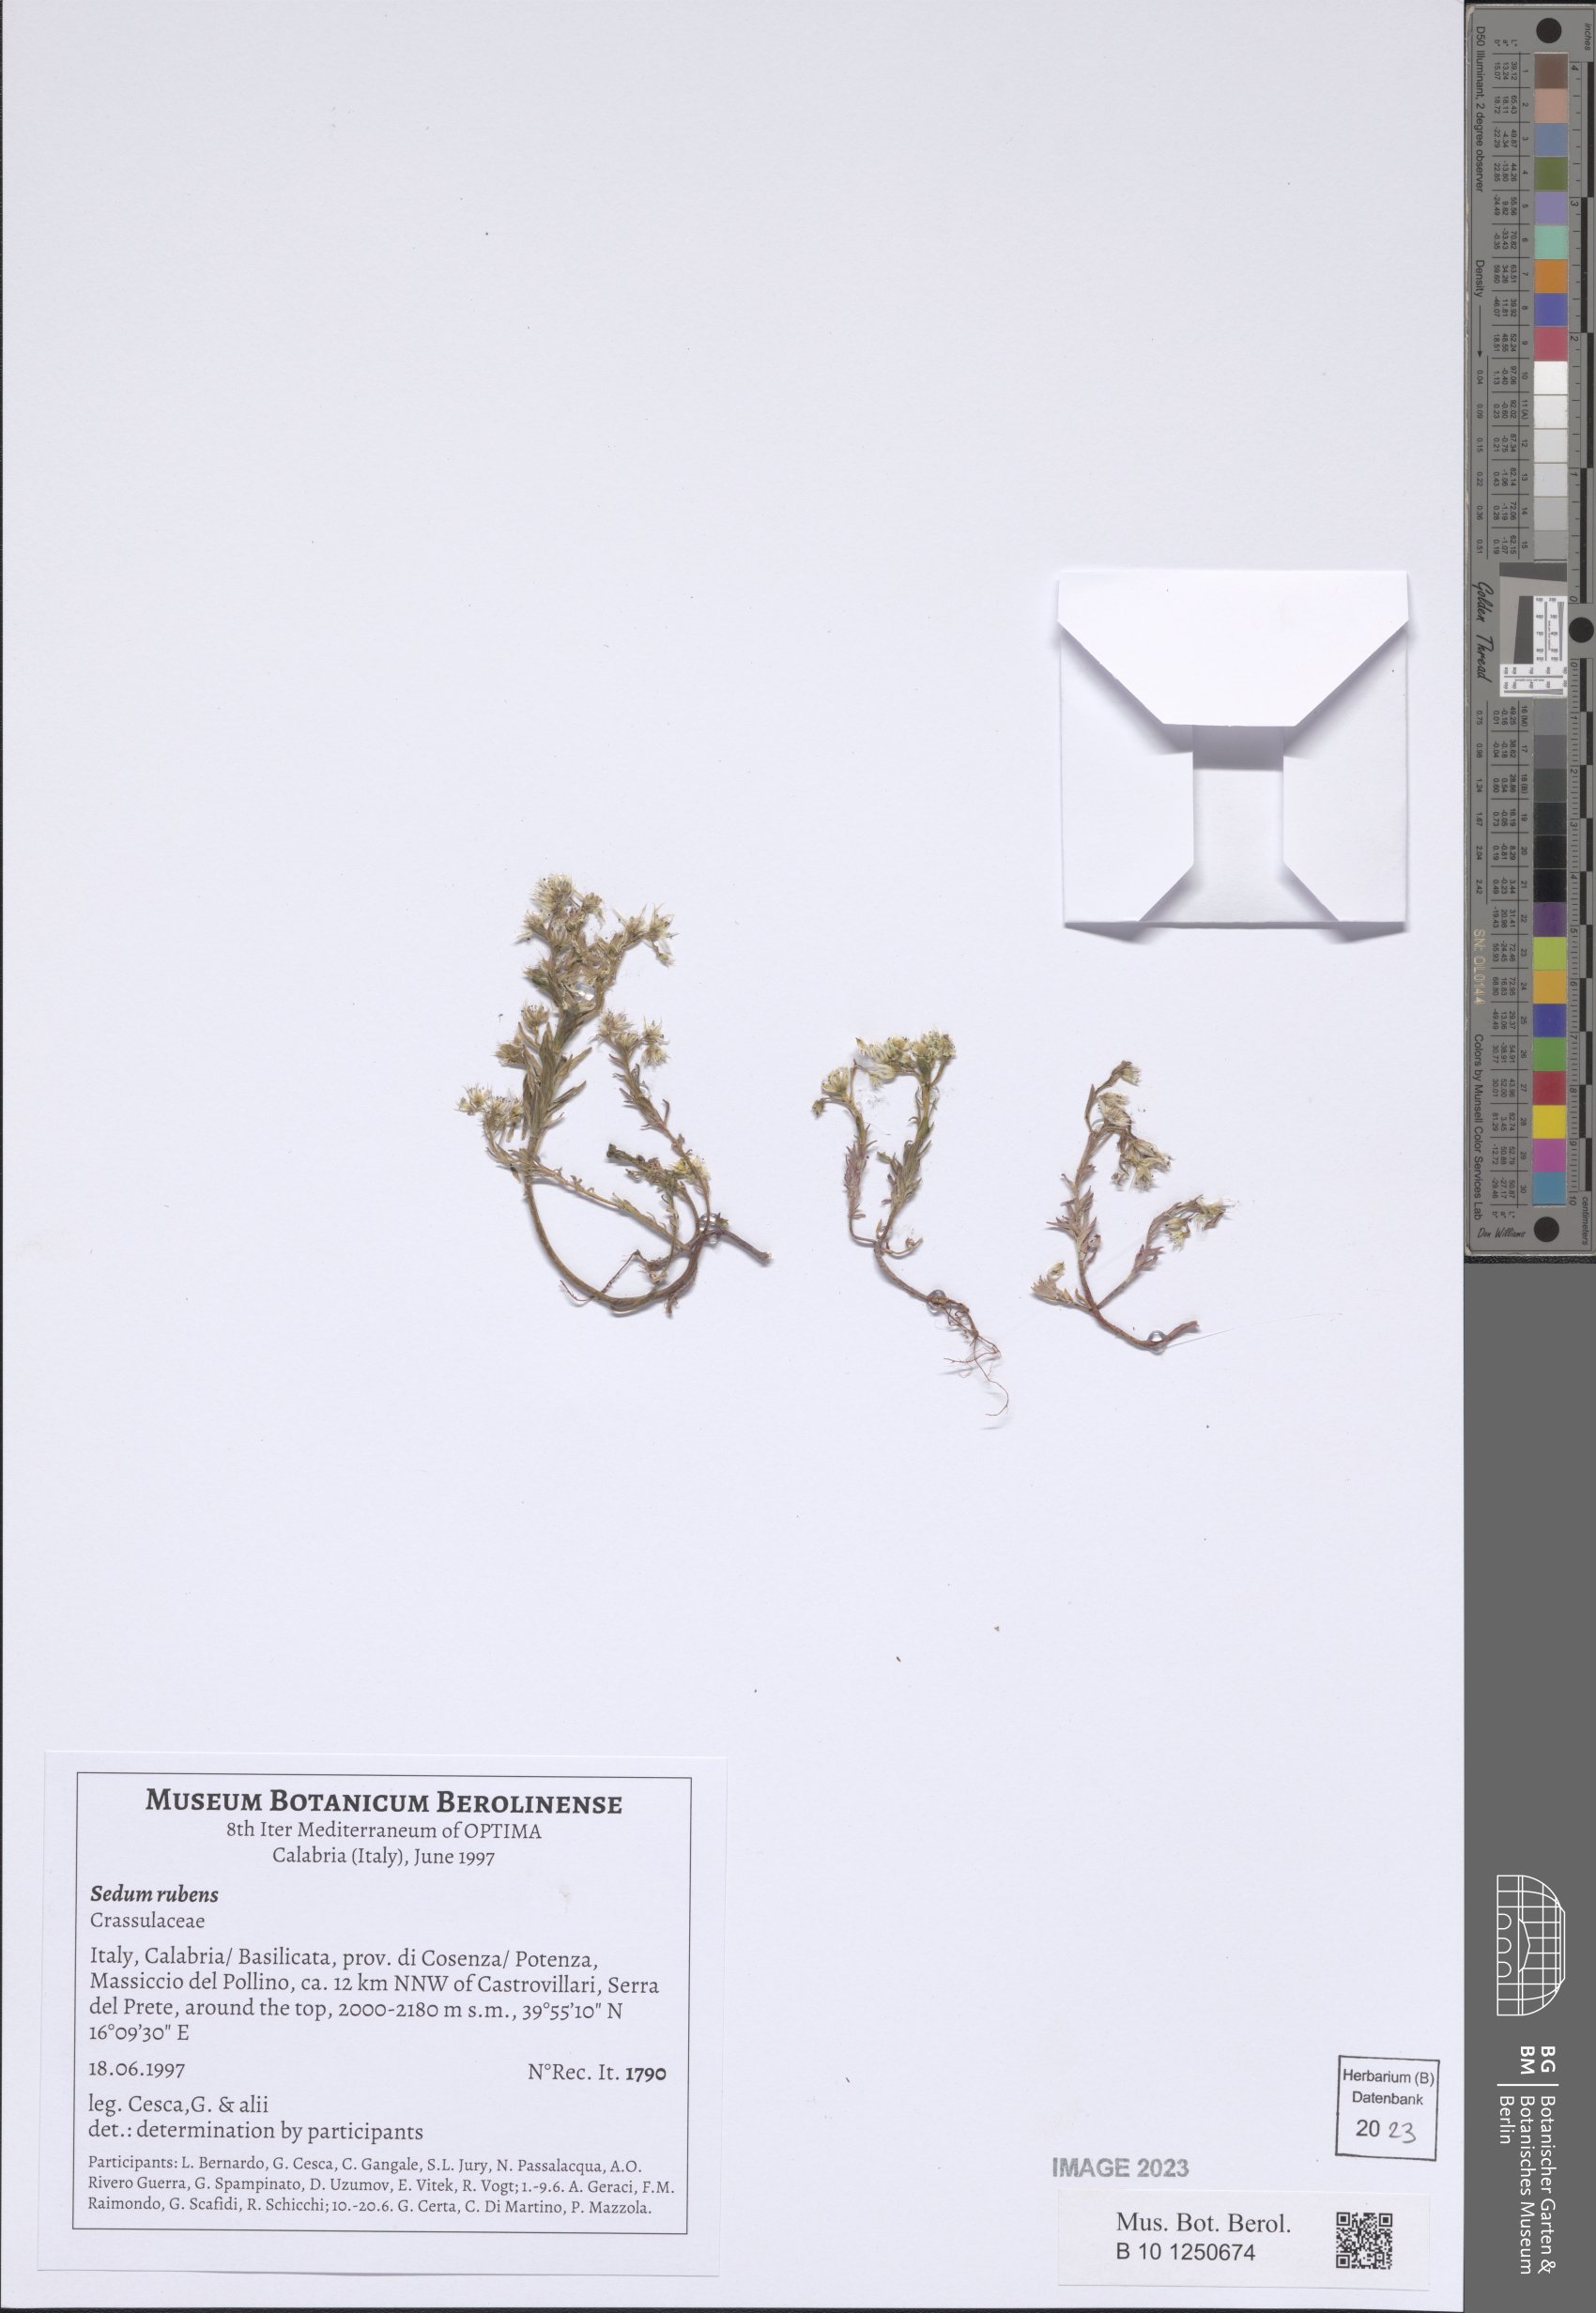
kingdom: Plantae
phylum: Tracheophyta
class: Magnoliopsida
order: Saxifragales
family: Crassulaceae
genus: Sedum
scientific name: Sedum rubens
